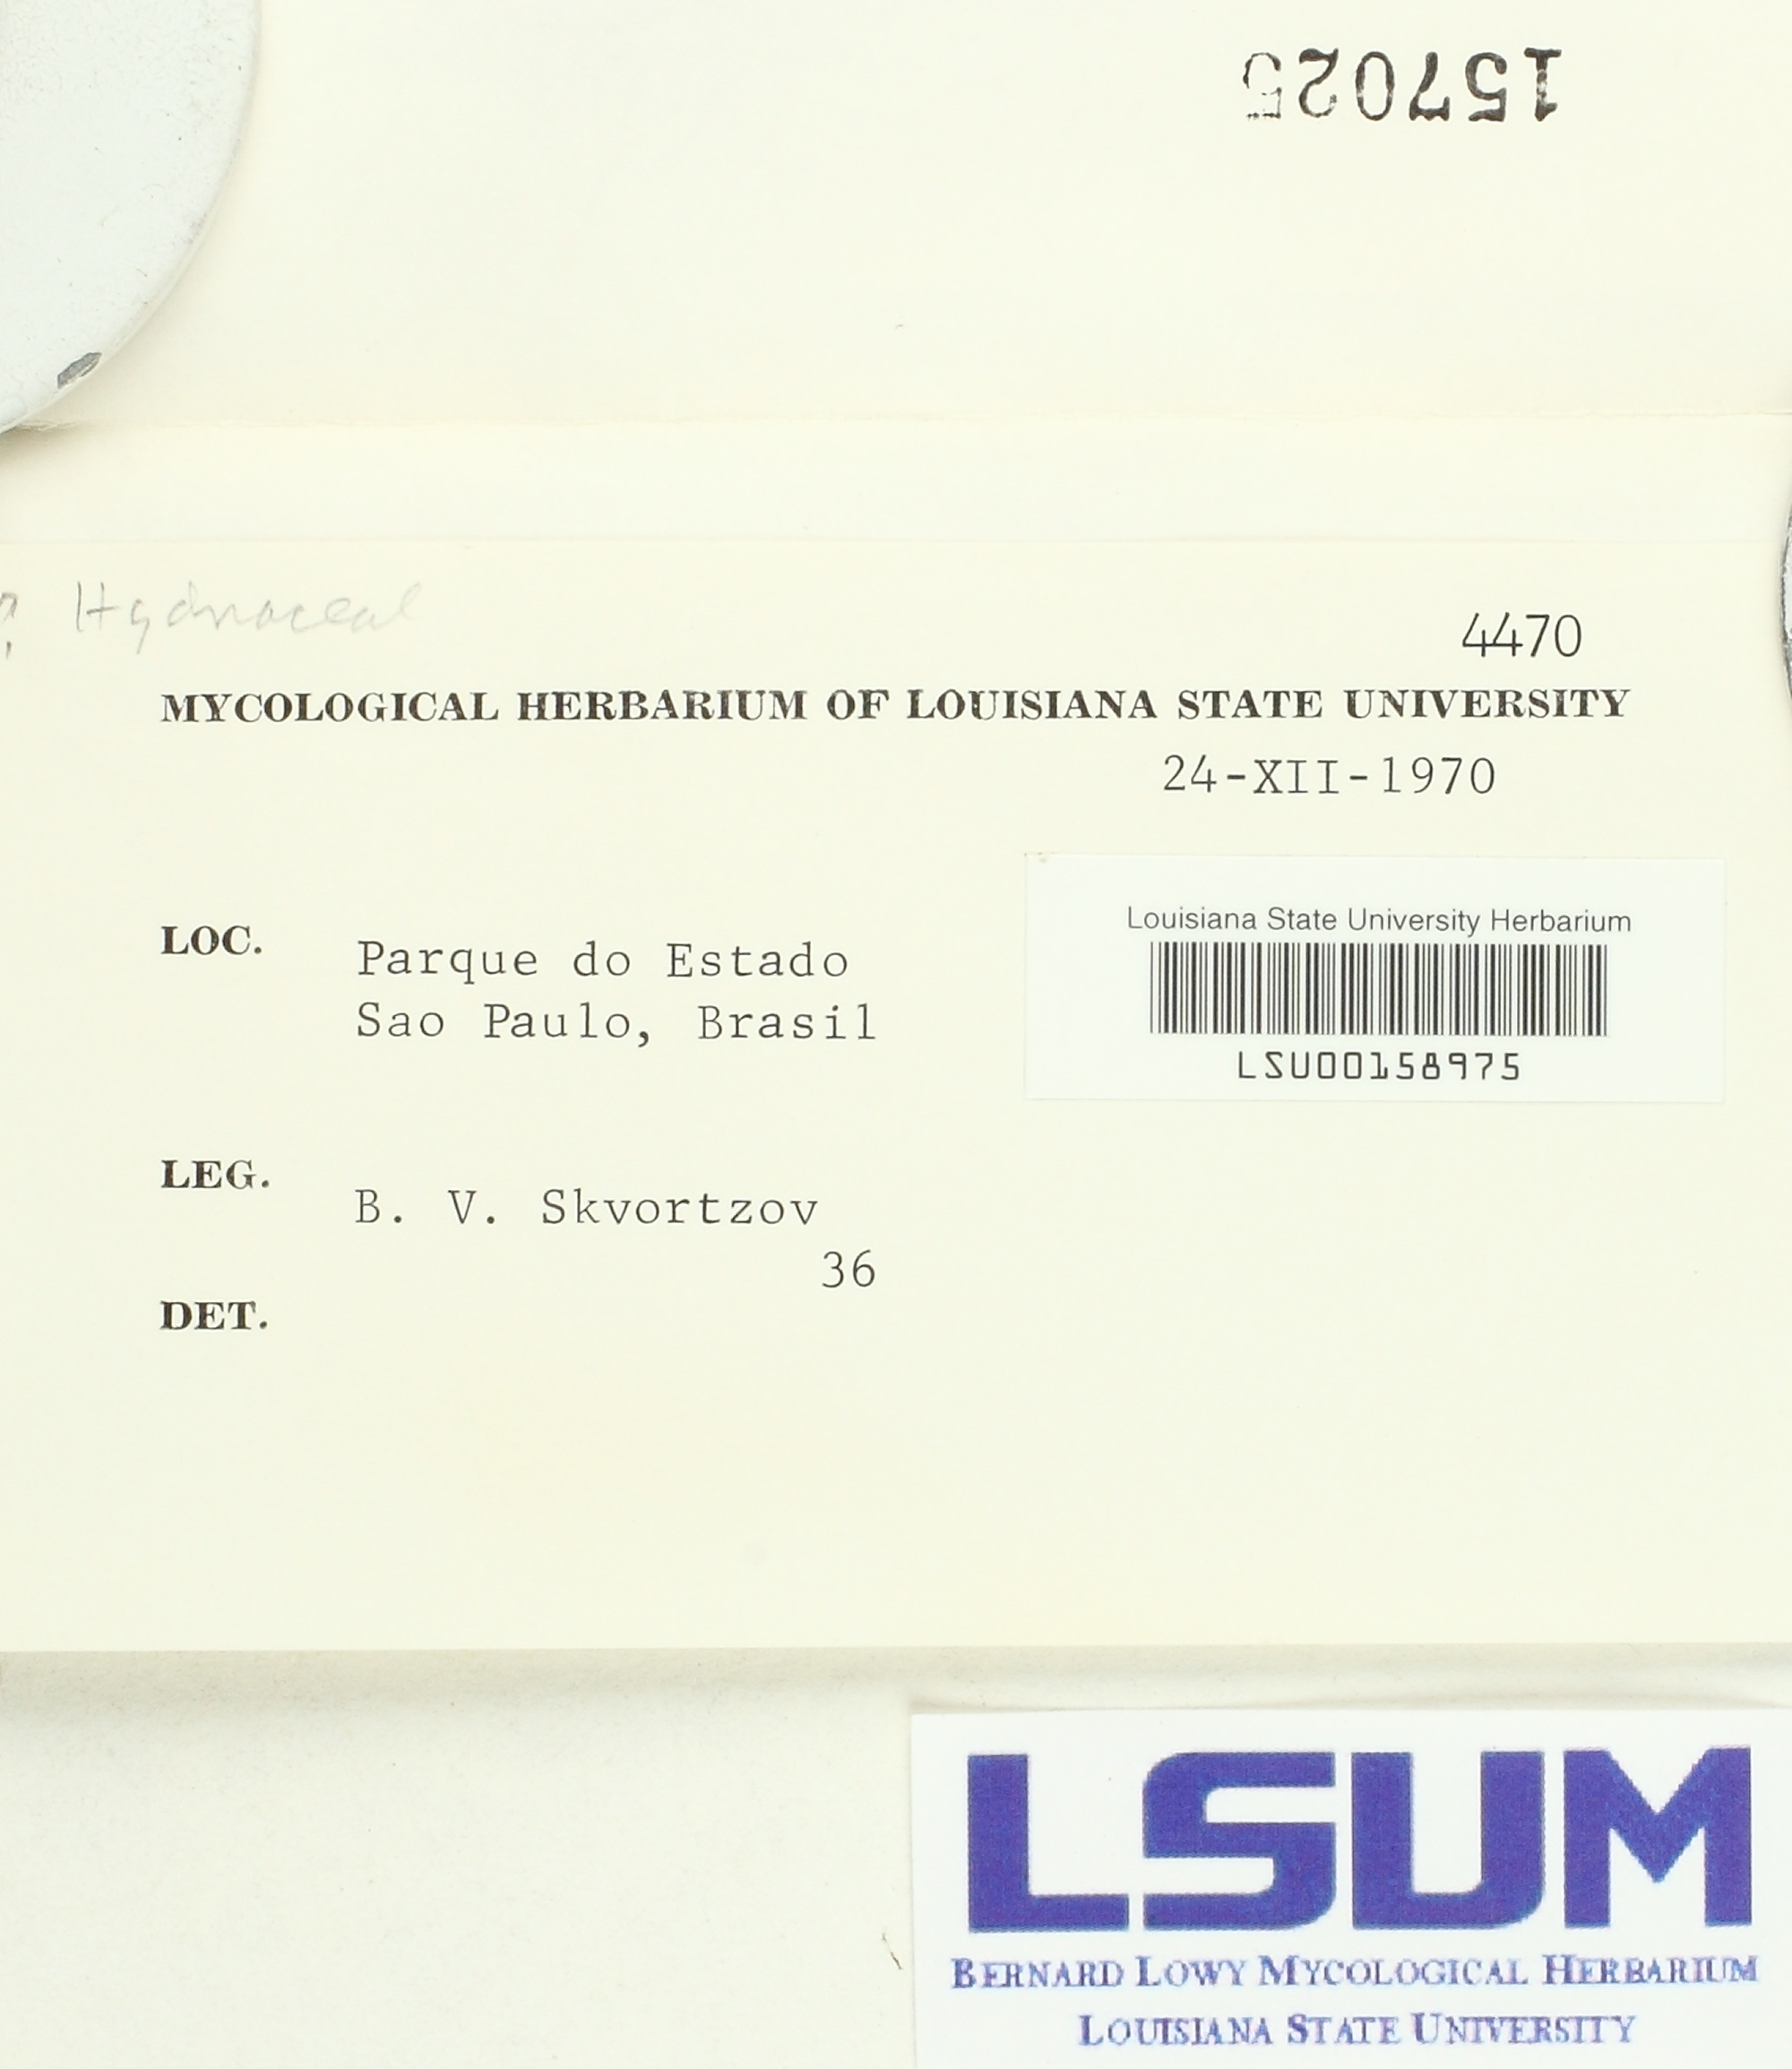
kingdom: Fungi
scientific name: Fungi
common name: Fungi
